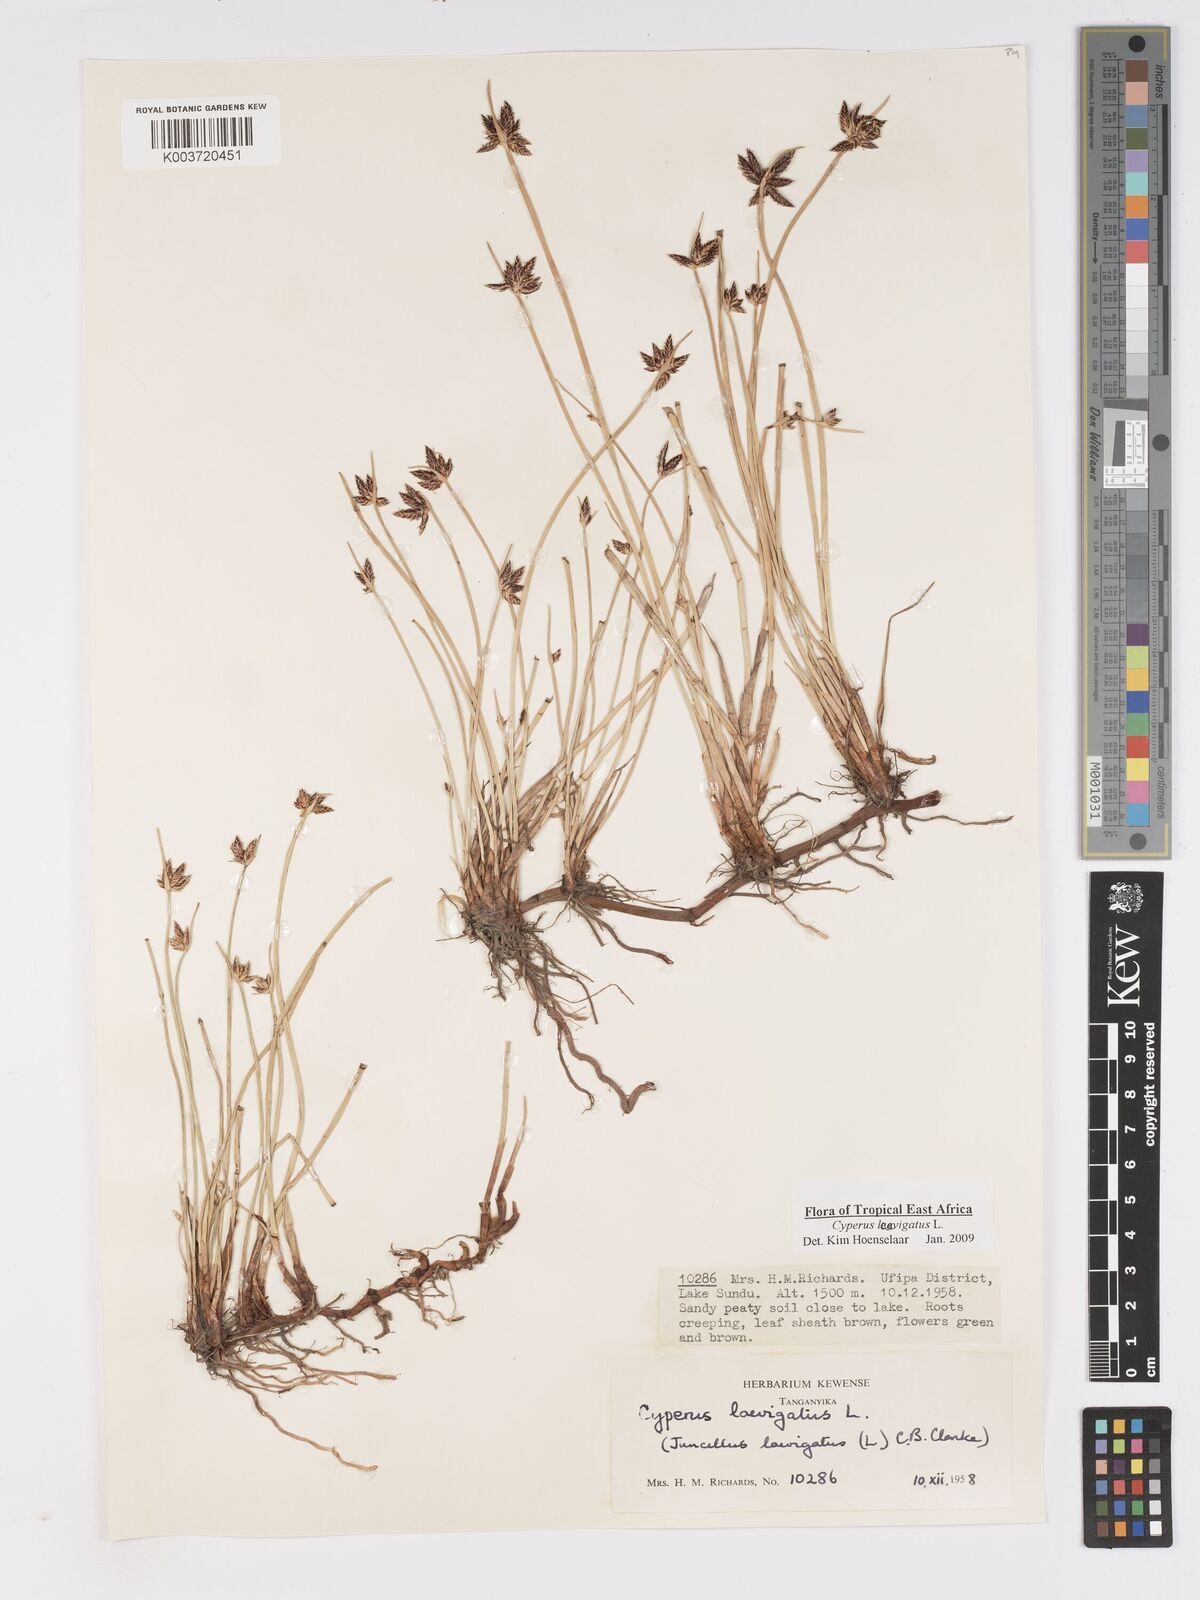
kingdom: Plantae
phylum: Tracheophyta
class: Liliopsida
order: Poales
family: Cyperaceae
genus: Cyperus
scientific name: Cyperus laevigatus
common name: Smooth flat sedge
